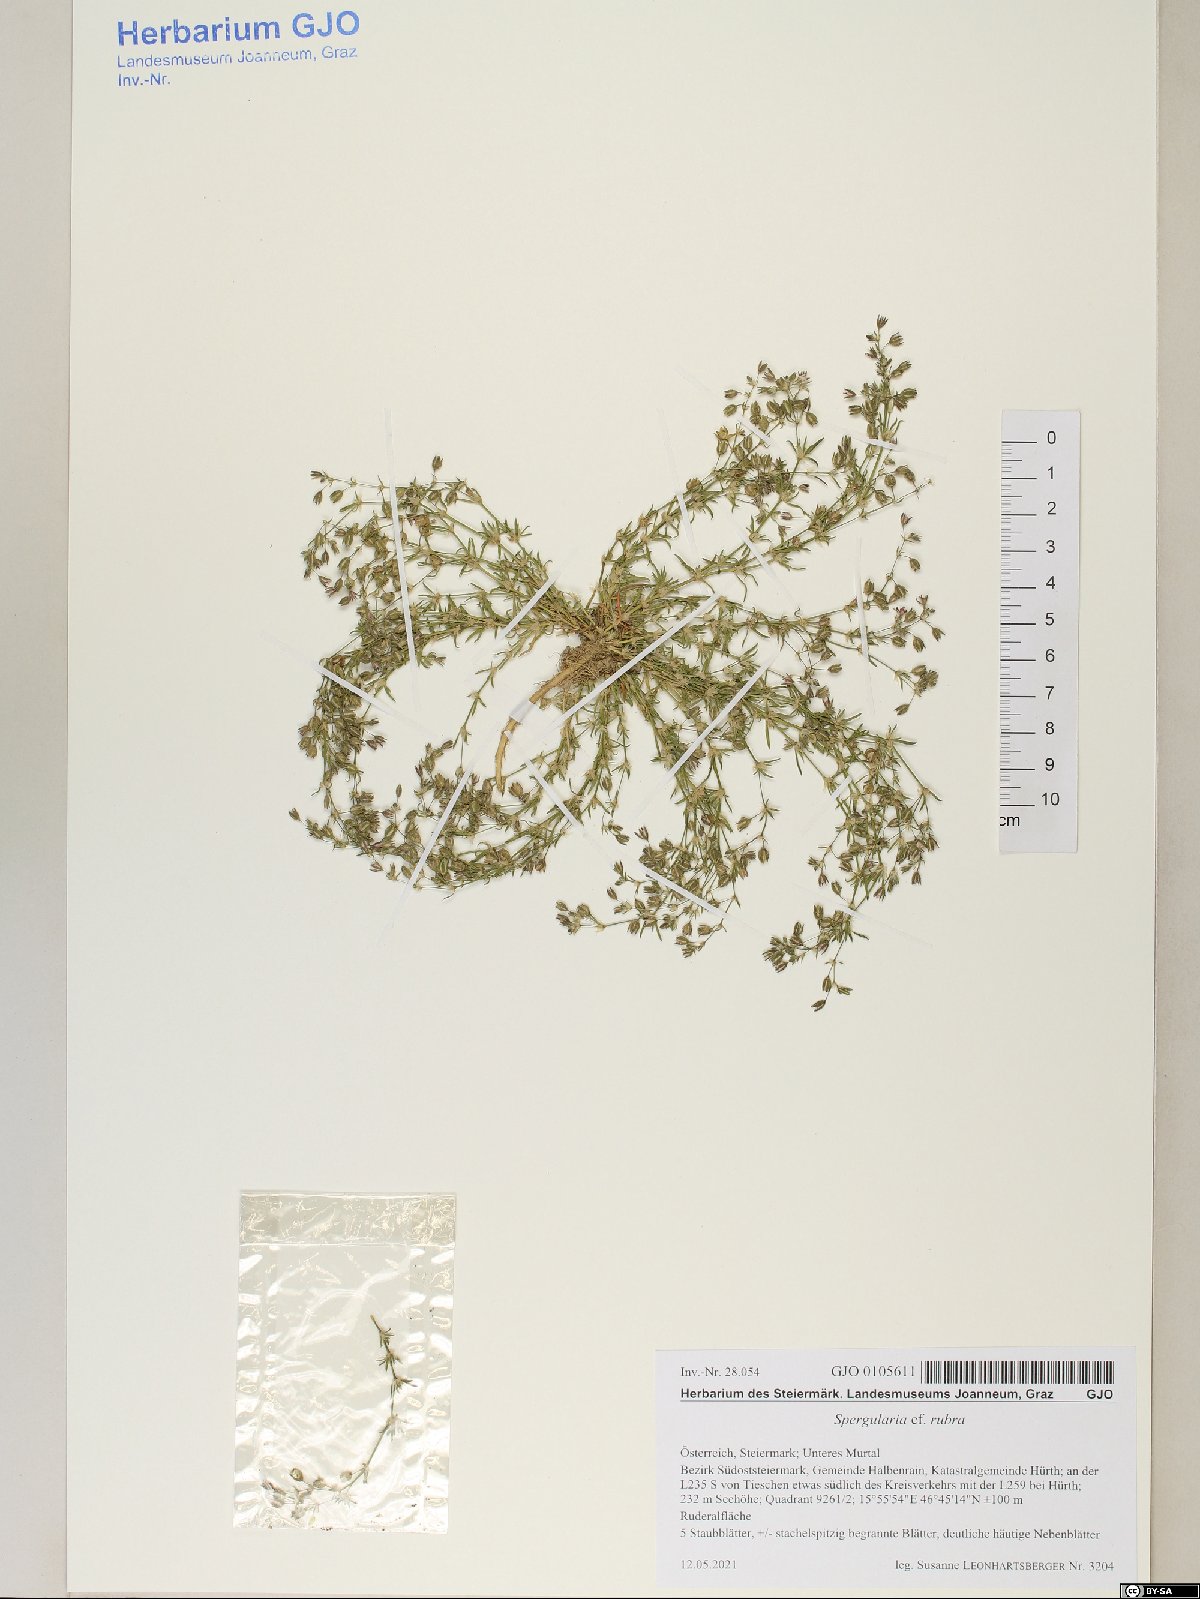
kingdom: Plantae
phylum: Tracheophyta
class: Magnoliopsida
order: Caryophyllales
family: Caryophyllaceae
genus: Spergularia
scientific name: Spergularia rubra
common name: Red sand-spurrey
